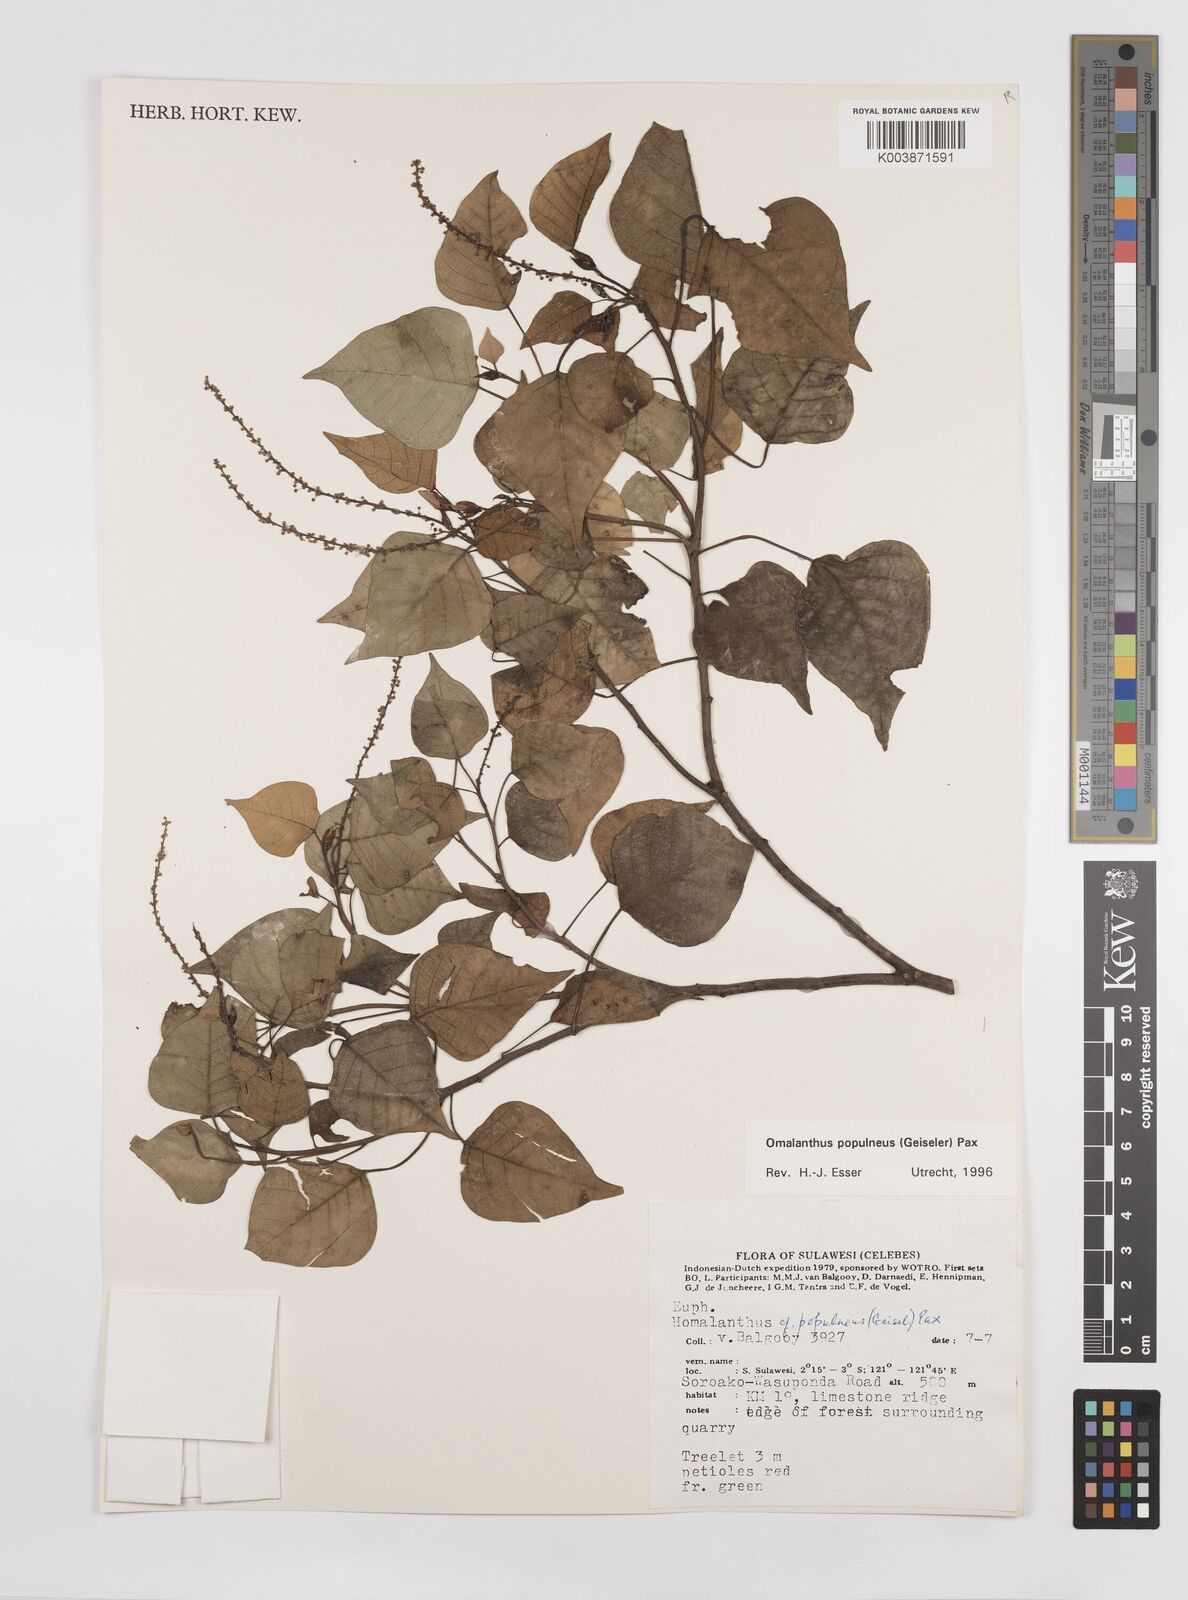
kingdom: Plantae
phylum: Tracheophyta
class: Magnoliopsida
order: Malpighiales
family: Euphorbiaceae
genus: Homalanthus
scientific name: Homalanthus populneus
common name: Spurge
